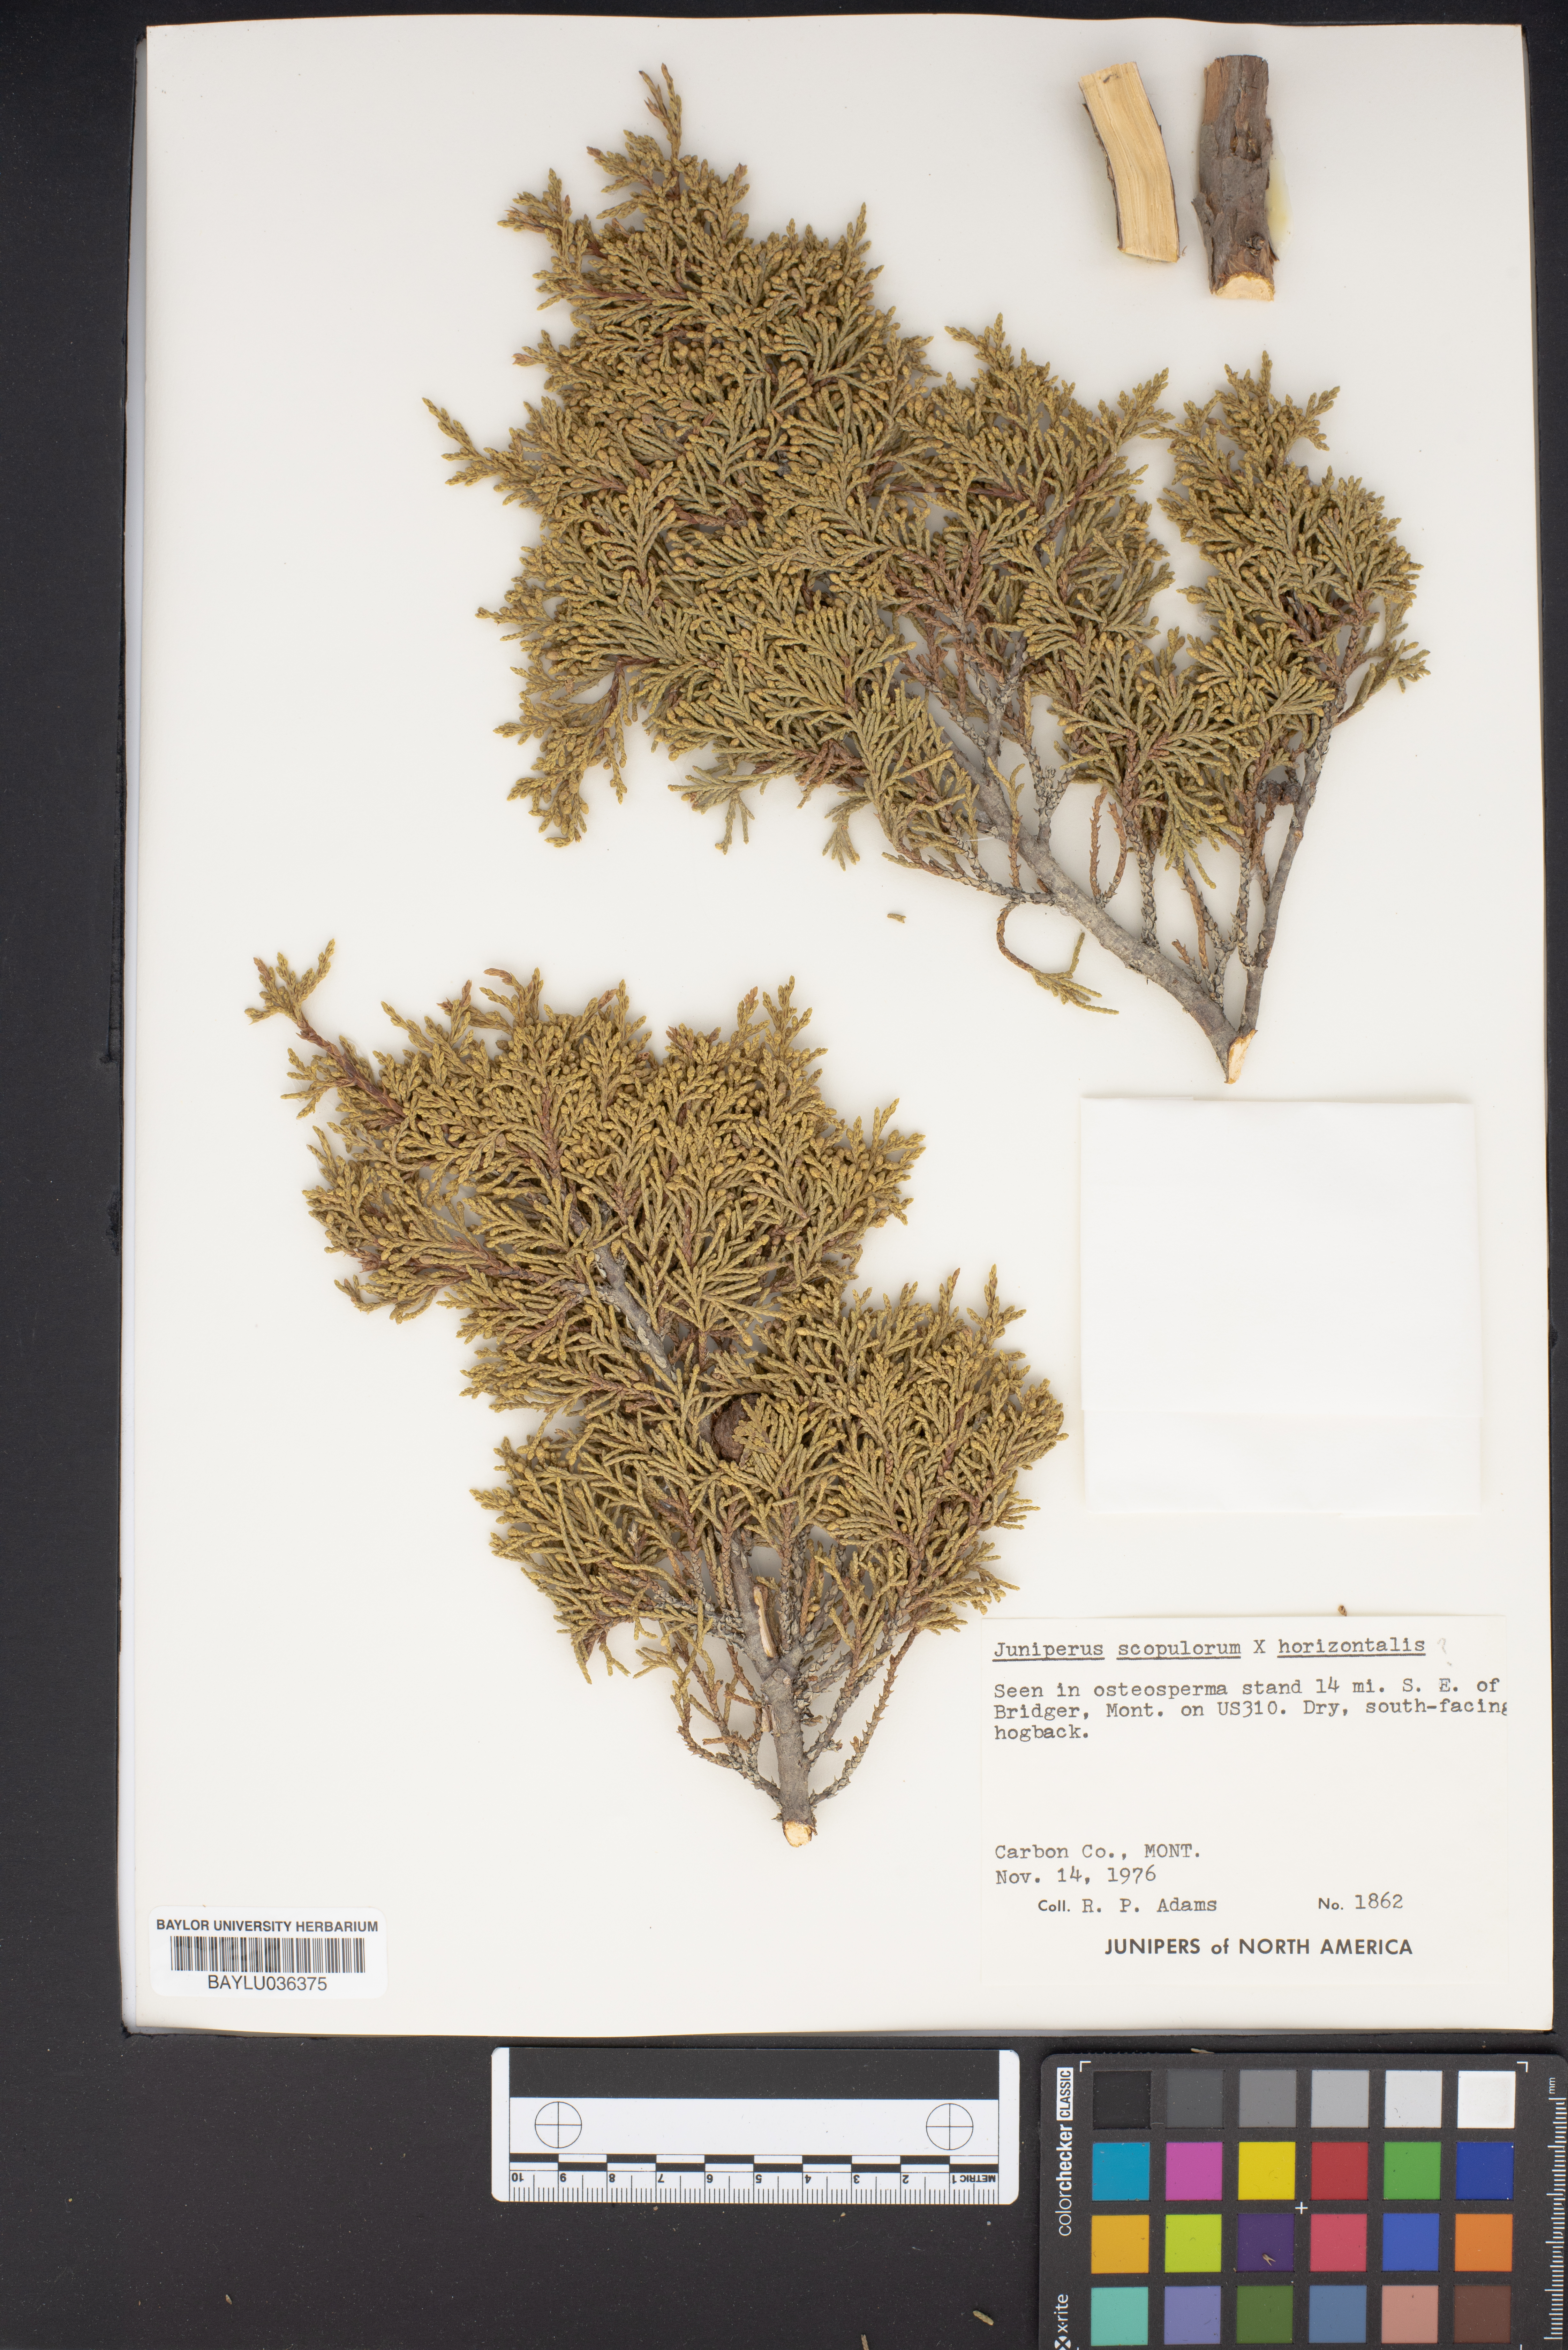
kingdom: Plantae
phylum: Tracheophyta
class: Pinopsida
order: Pinales
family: Cupressaceae
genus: Juniperus
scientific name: Juniperus scopulorum
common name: Rocky mountain juniper
